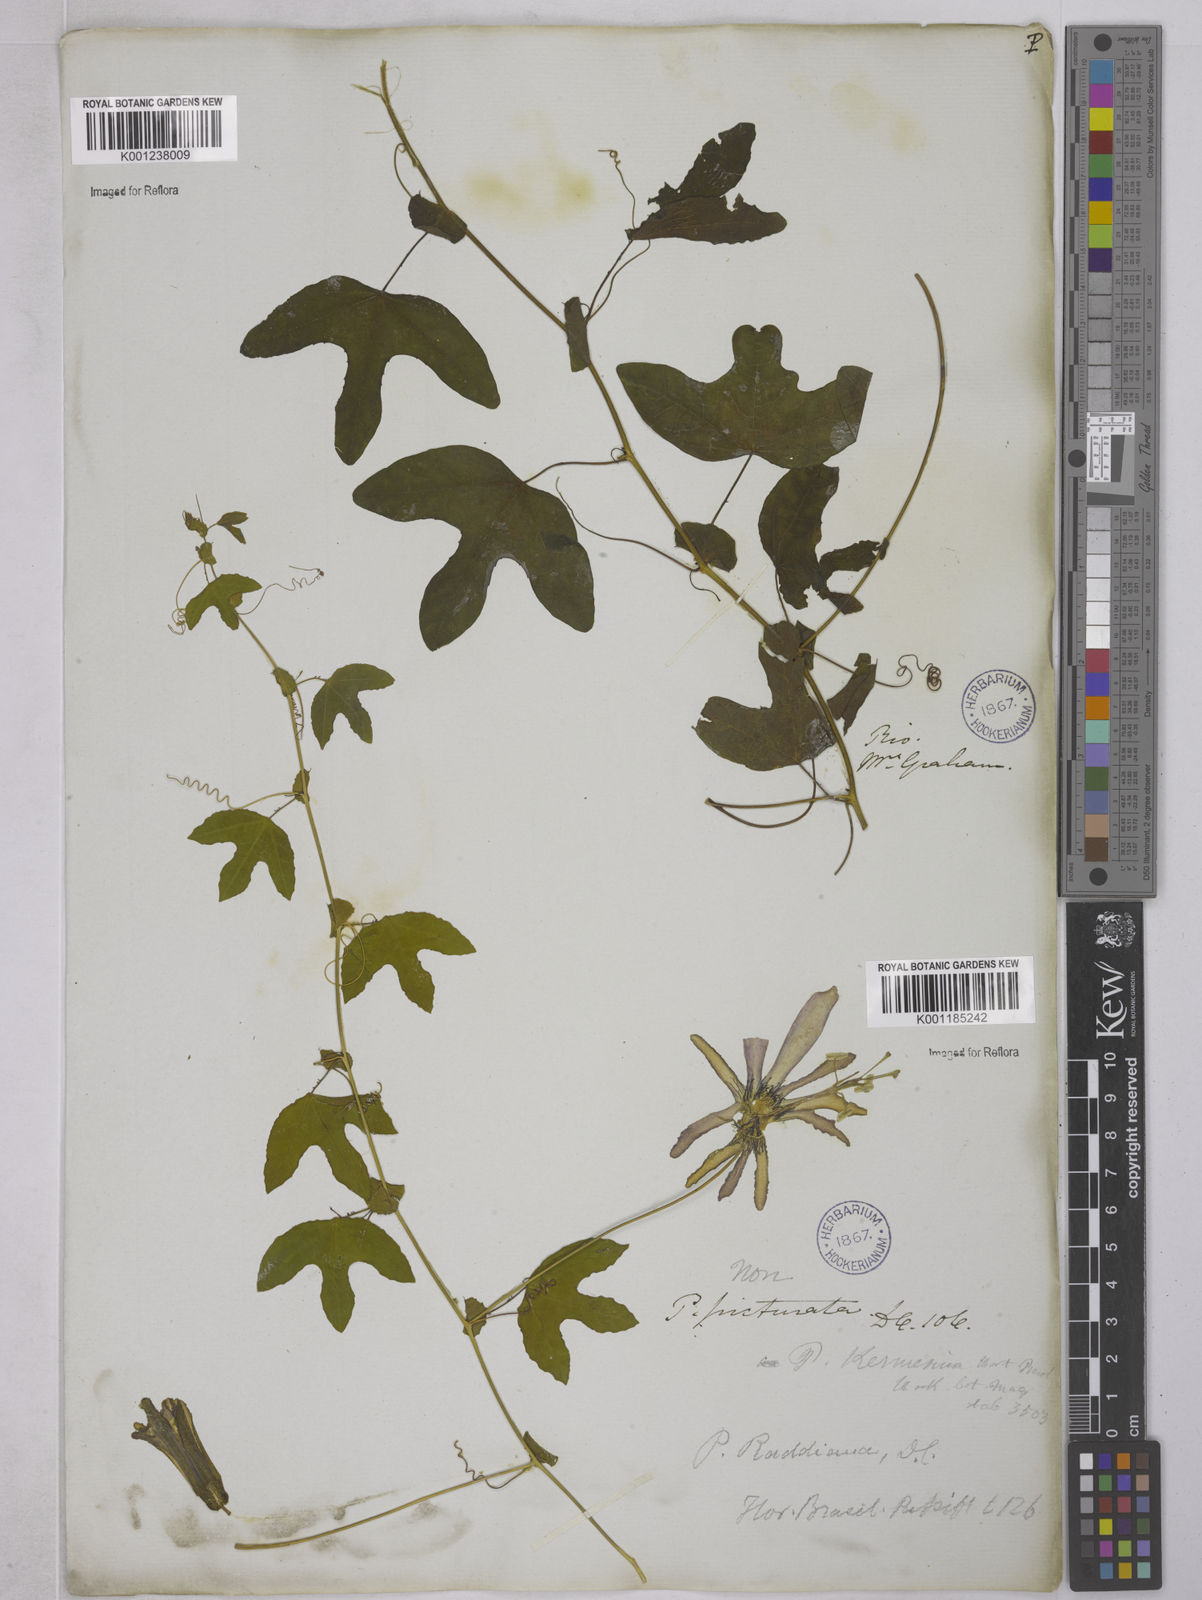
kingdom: Plantae
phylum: Tracheophyta
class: Magnoliopsida
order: Malpighiales
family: Passifloraceae
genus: Passiflora
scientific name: Passiflora kermesina
